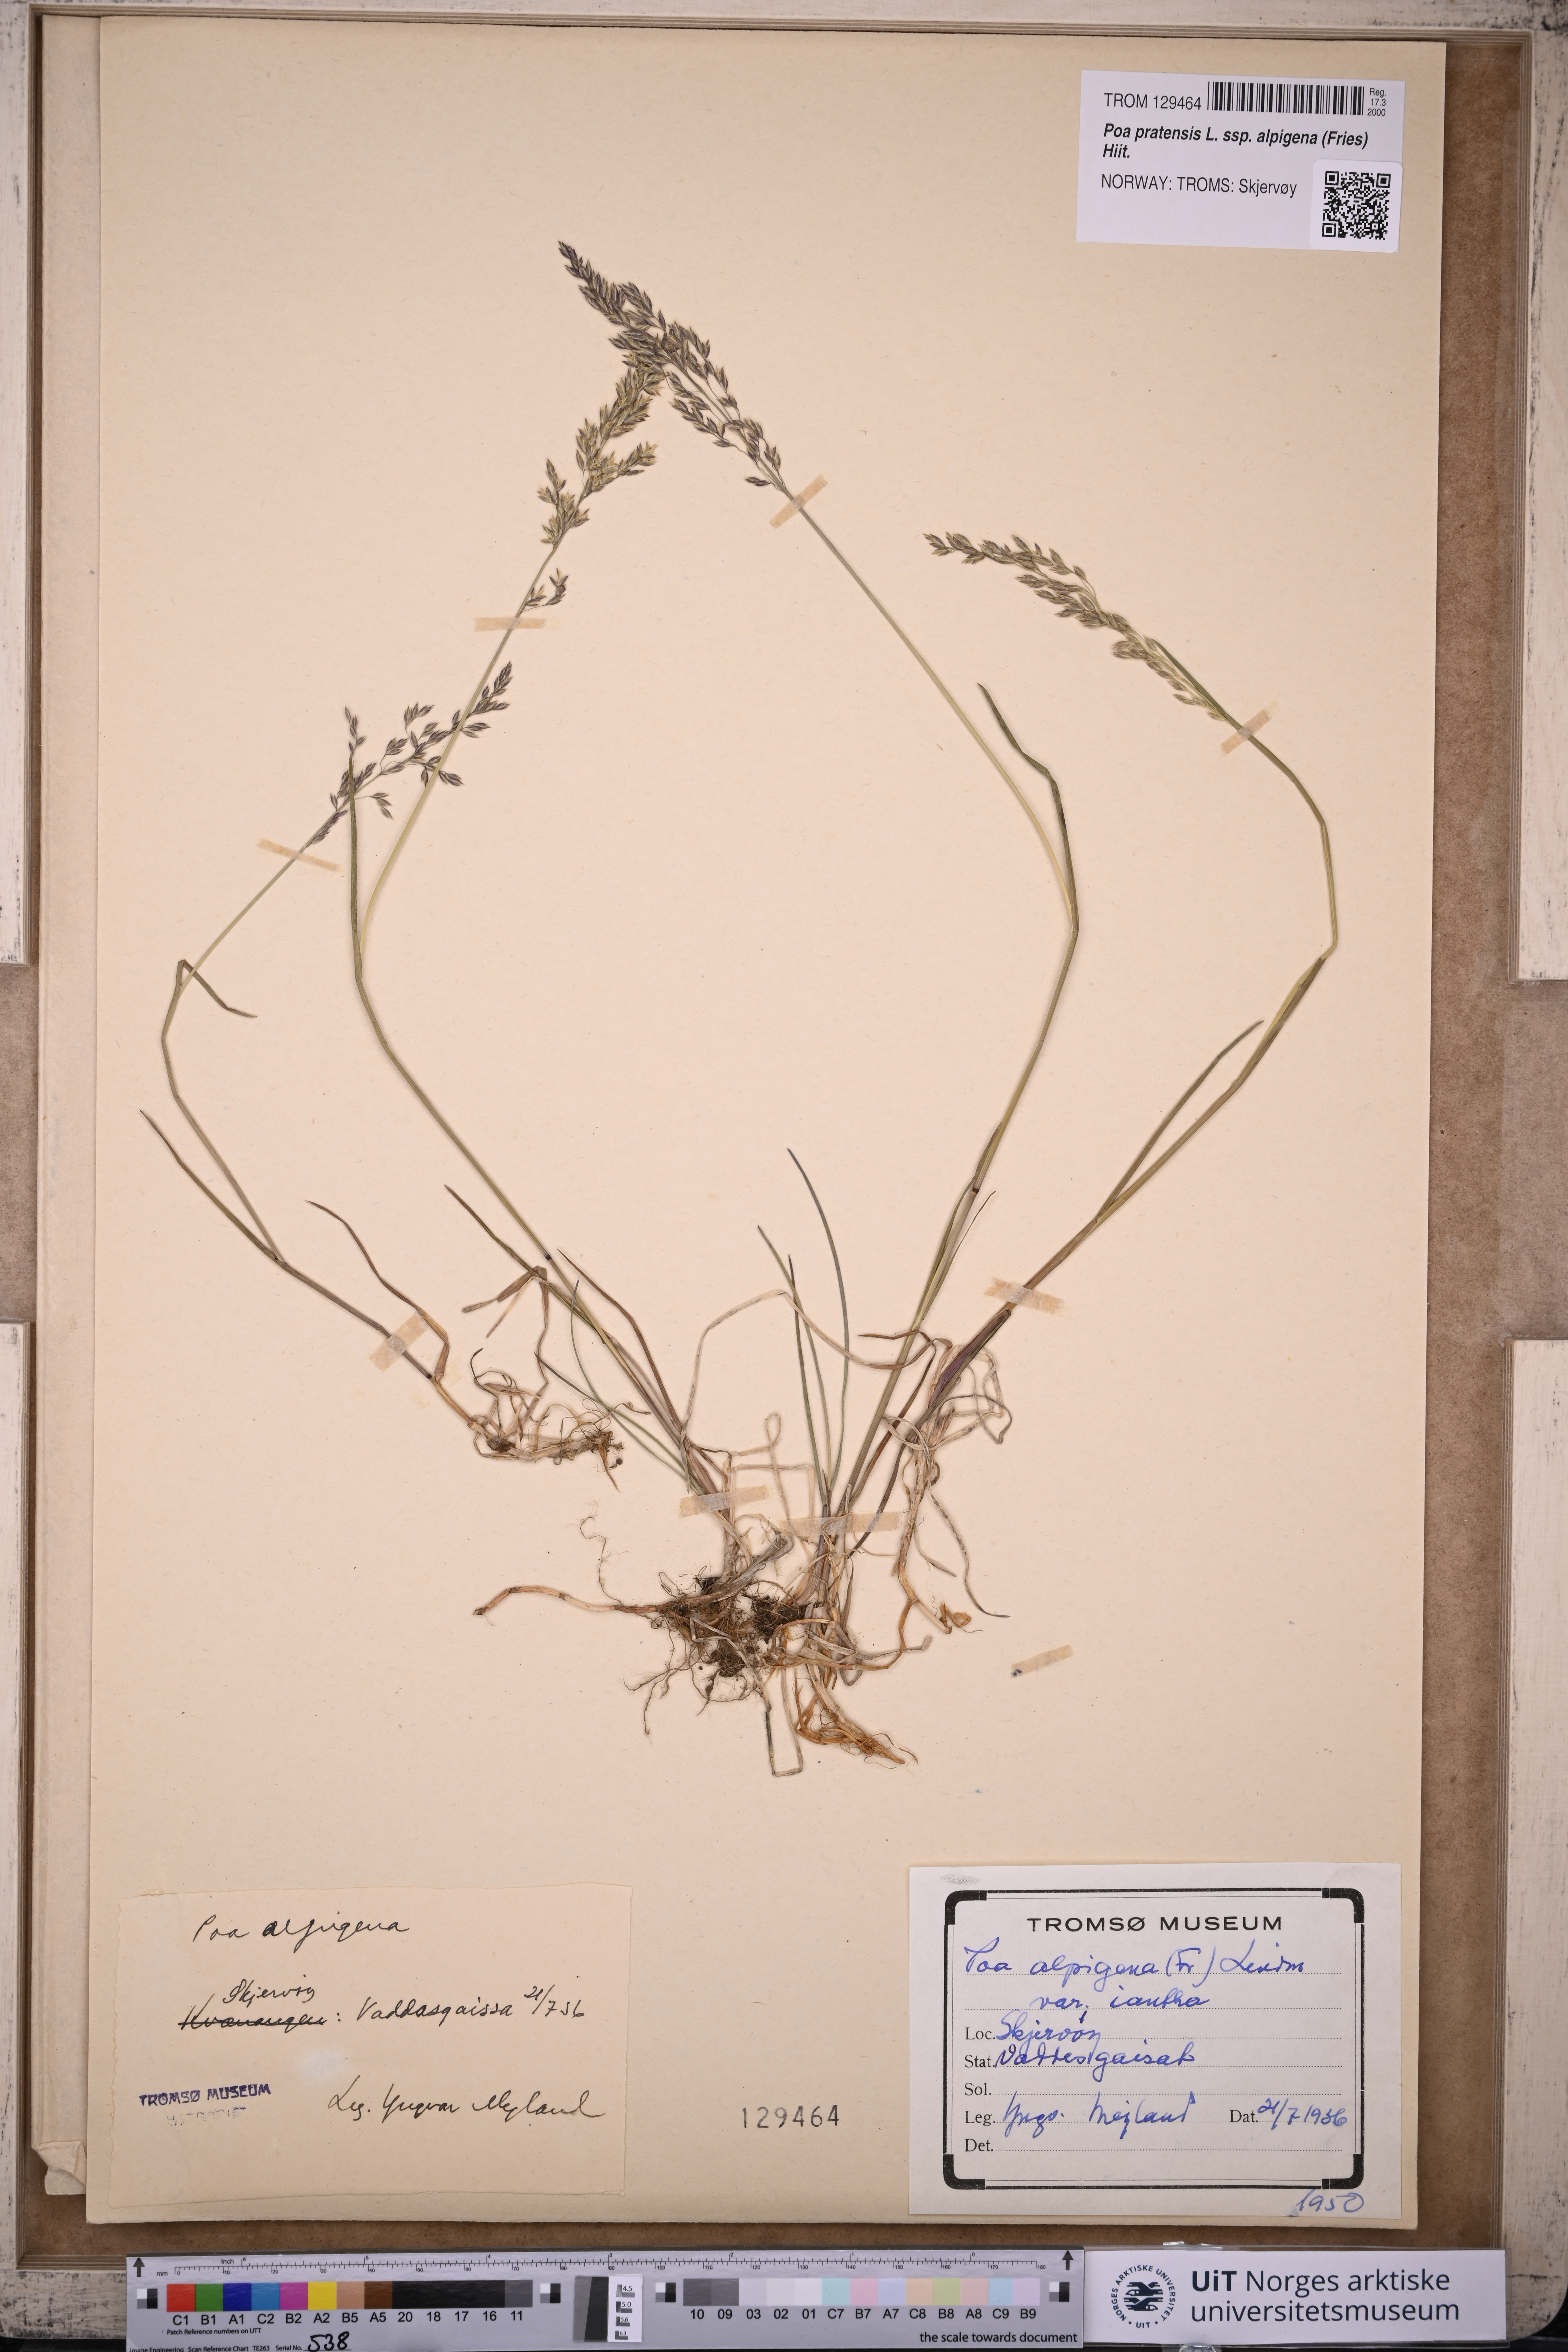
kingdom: Plantae
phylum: Tracheophyta
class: Liliopsida
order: Poales
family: Poaceae
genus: Poa
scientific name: Poa alpigena
